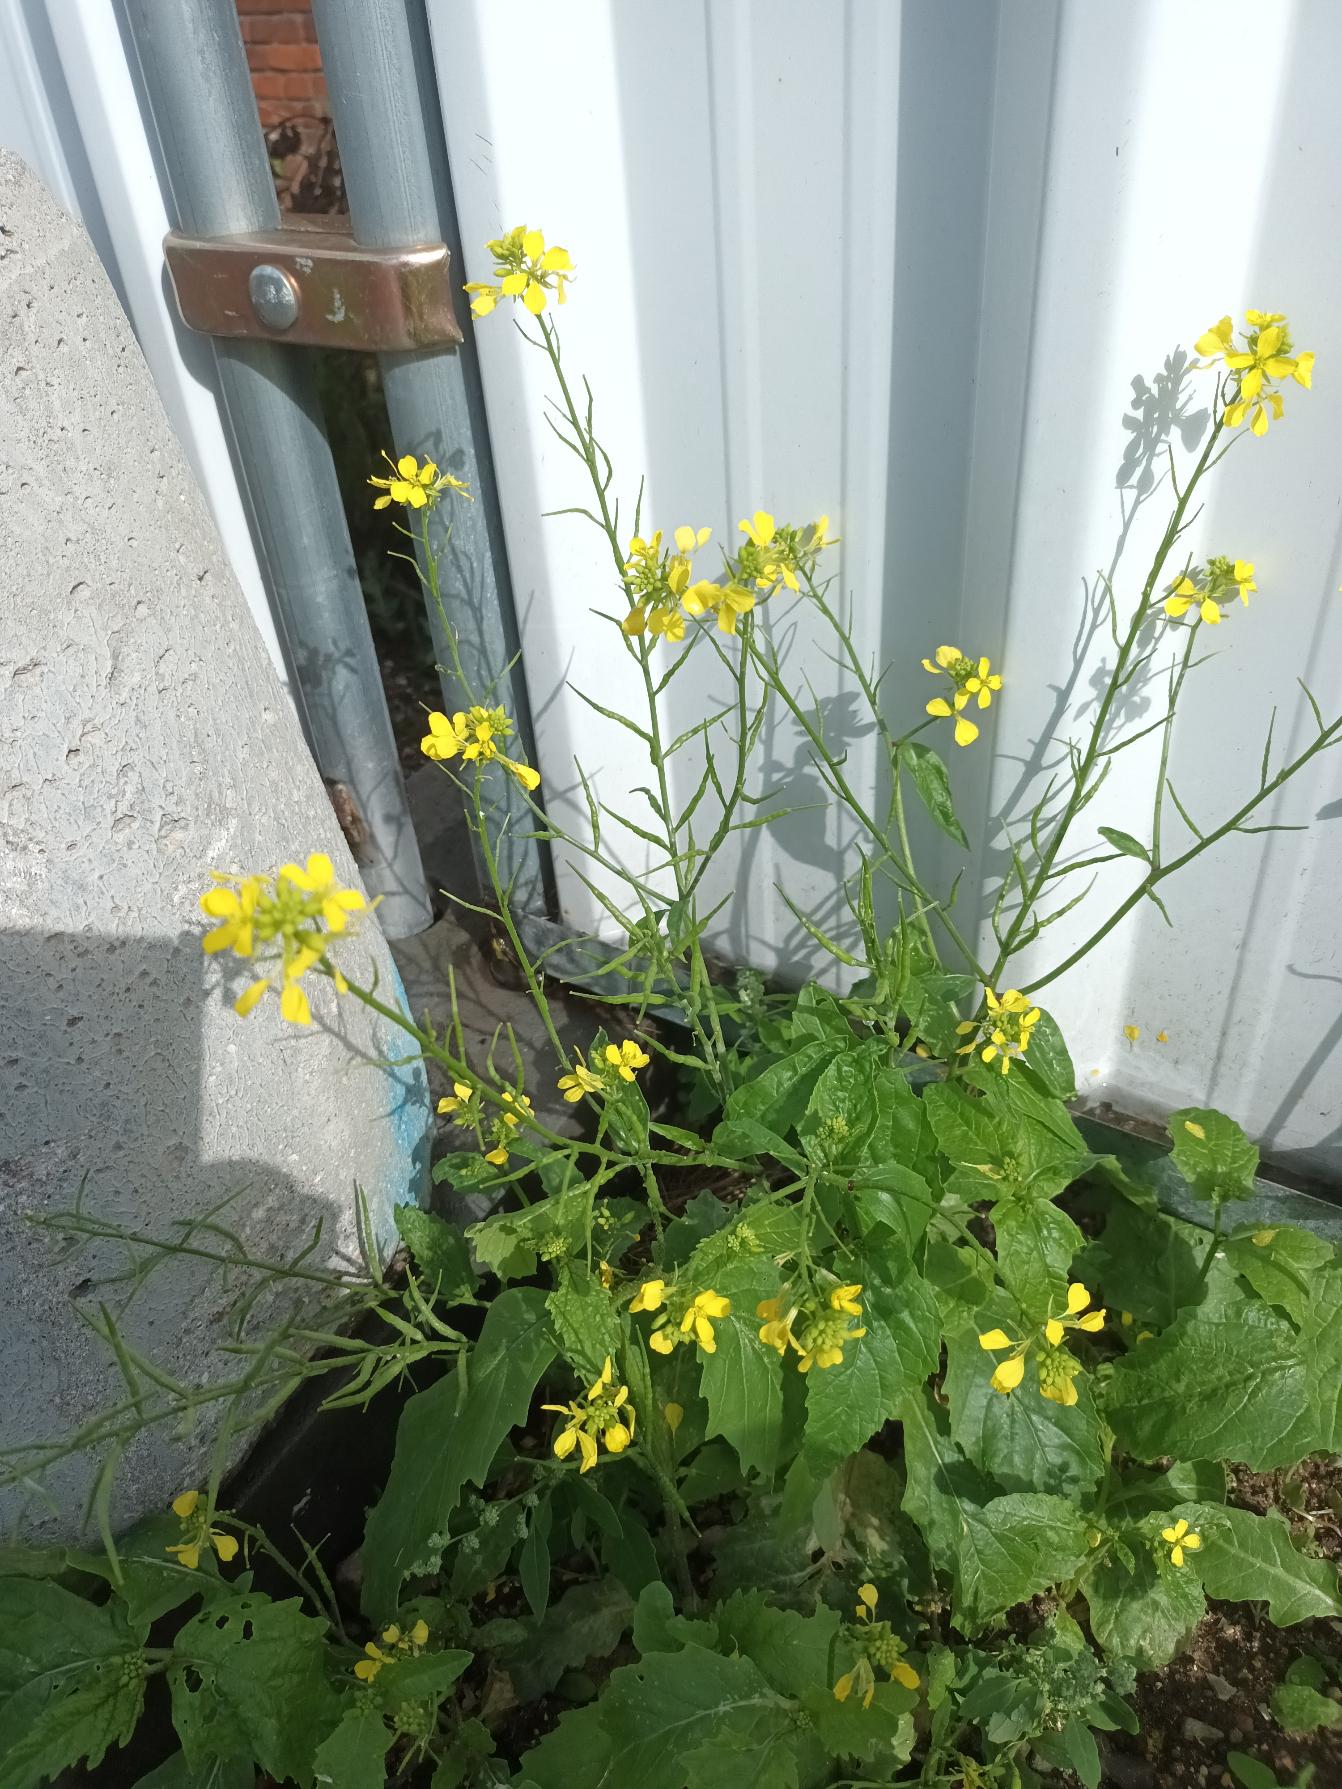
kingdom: Plantae
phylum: Tracheophyta
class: Magnoliopsida
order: Brassicales
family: Brassicaceae
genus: Sinapis
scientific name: Sinapis arvensis
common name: Ager-sennep
